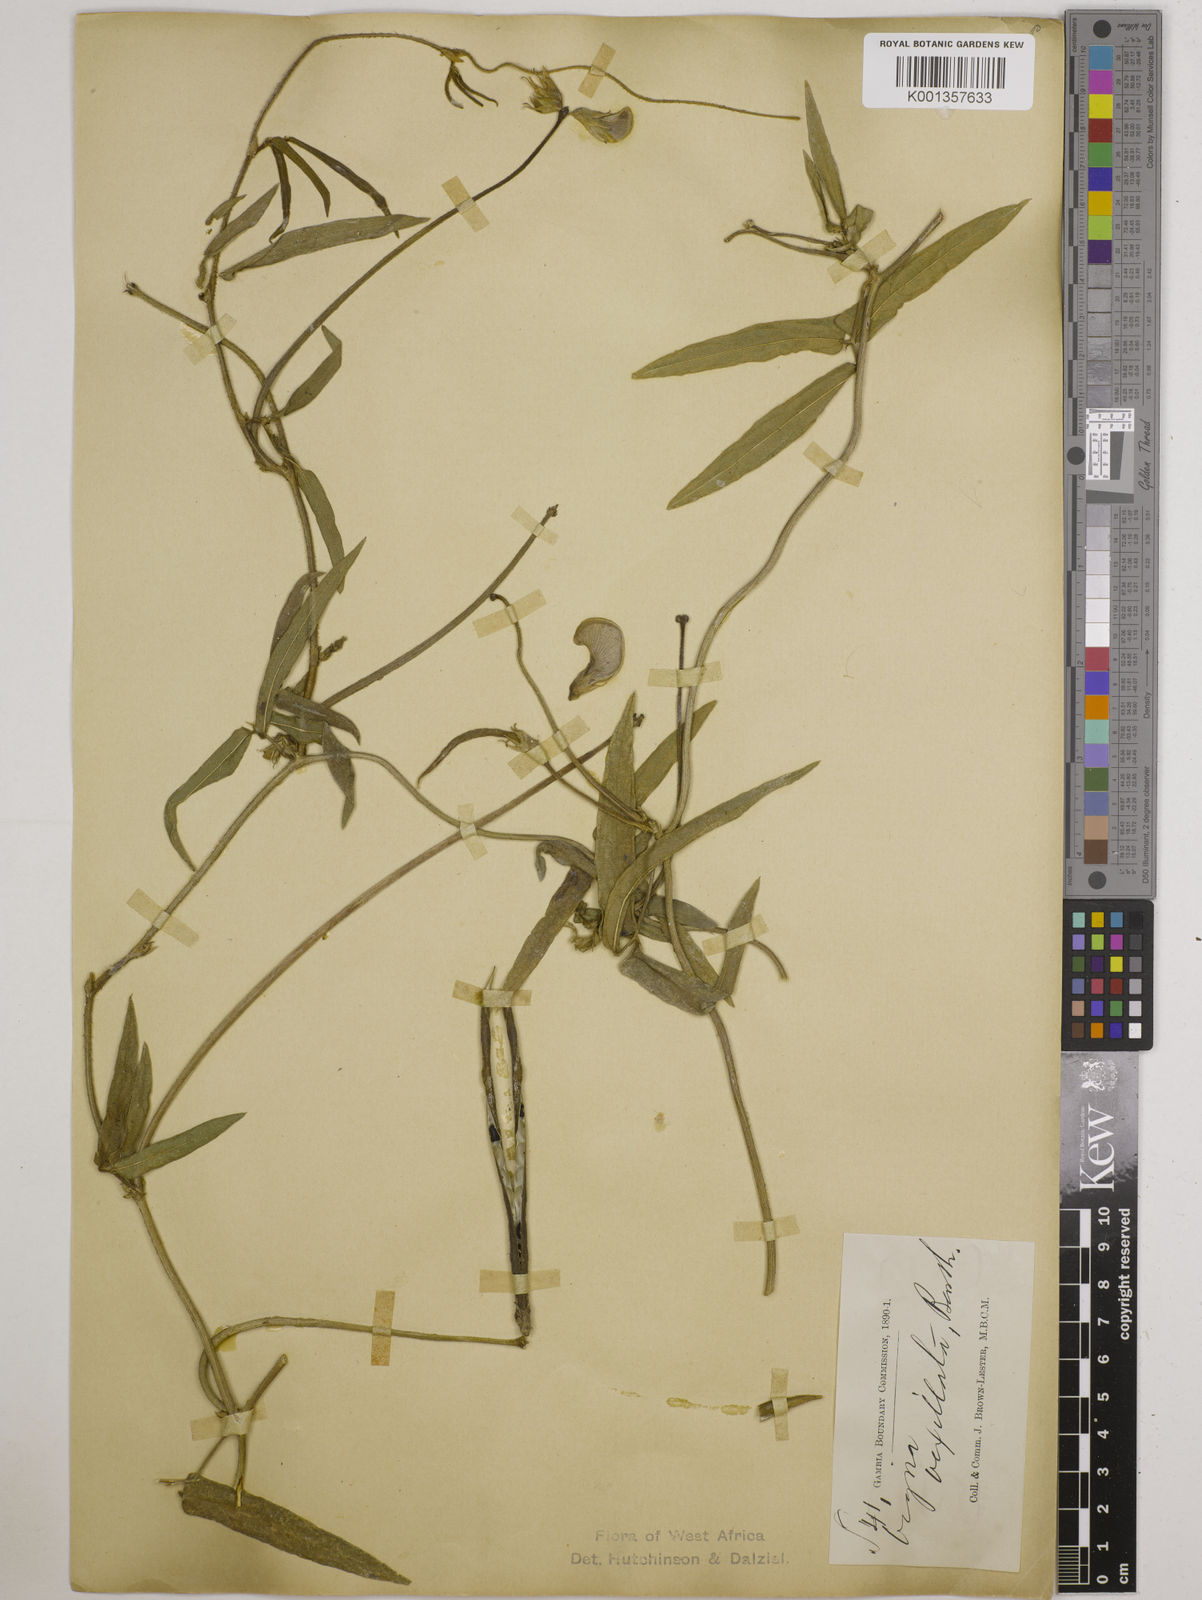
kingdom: Plantae
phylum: Tracheophyta
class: Magnoliopsida
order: Fabales
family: Fabaceae
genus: Vigna
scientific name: Vigna vexillata
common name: Zombi pea
